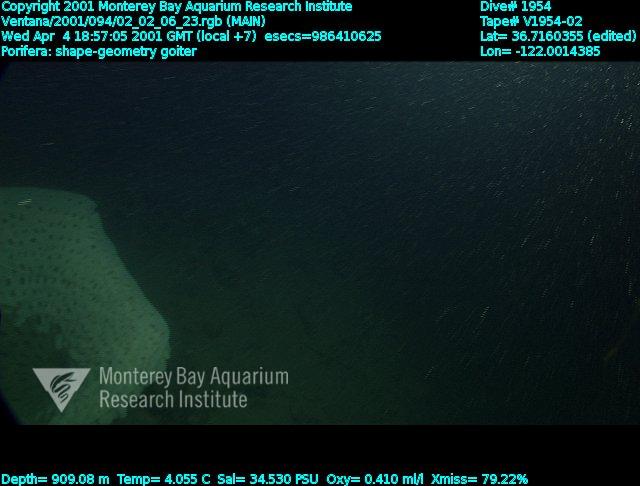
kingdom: Animalia
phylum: Porifera
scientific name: Porifera
